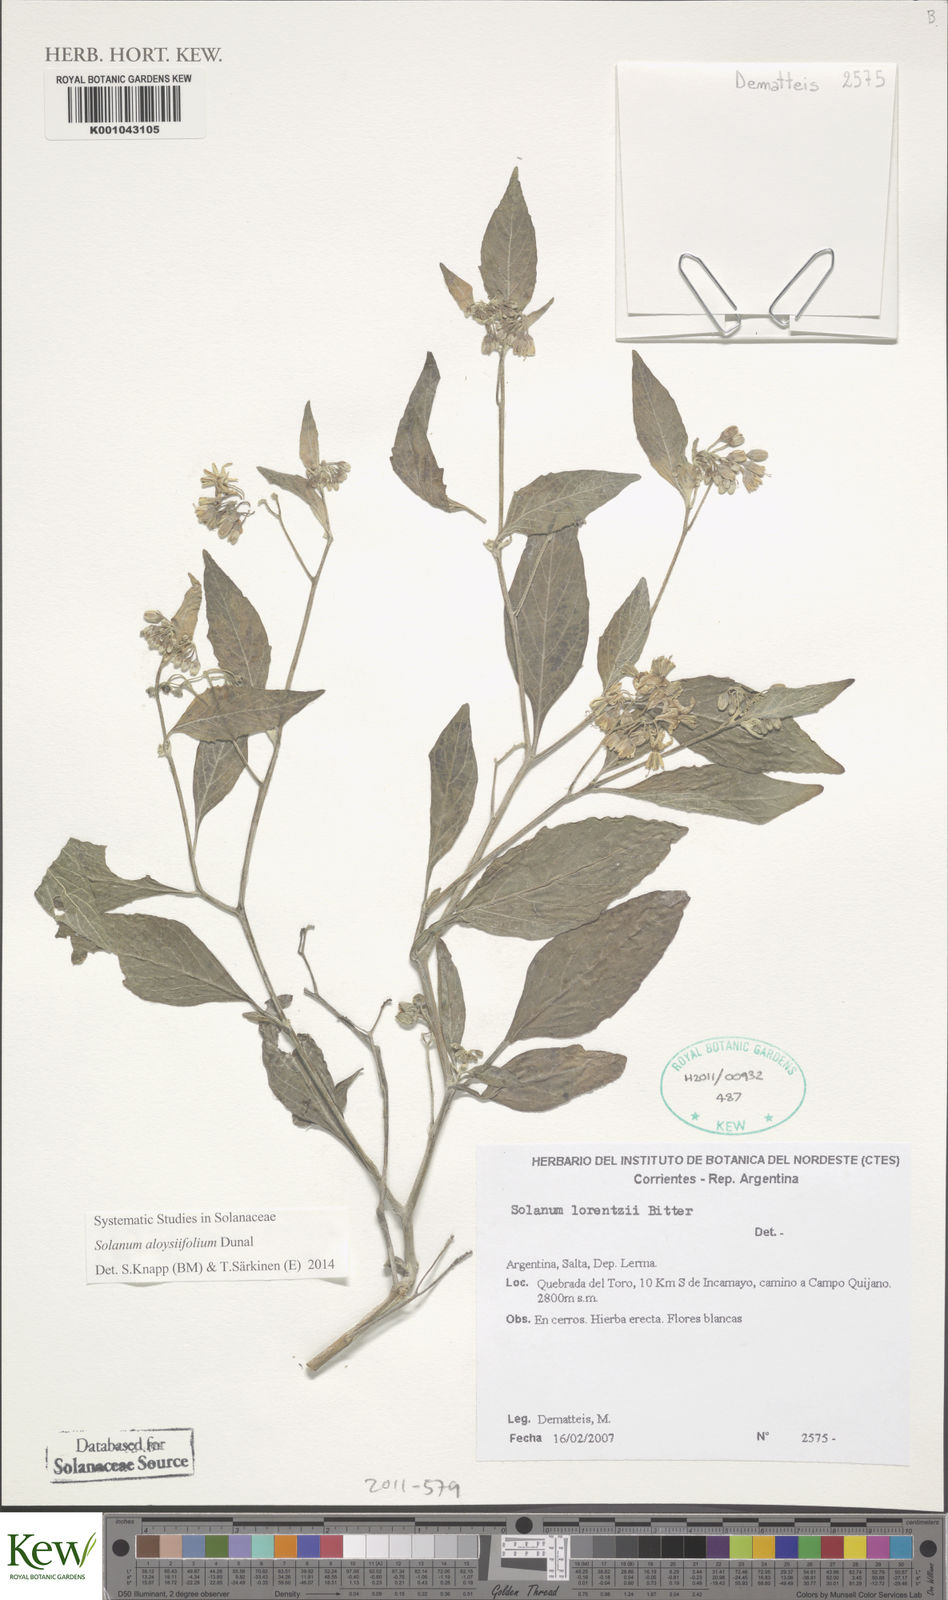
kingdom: Plantae
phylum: Tracheophyta
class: Magnoliopsida
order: Solanales
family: Solanaceae
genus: Solanum
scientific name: Solanum aloysiifolium
